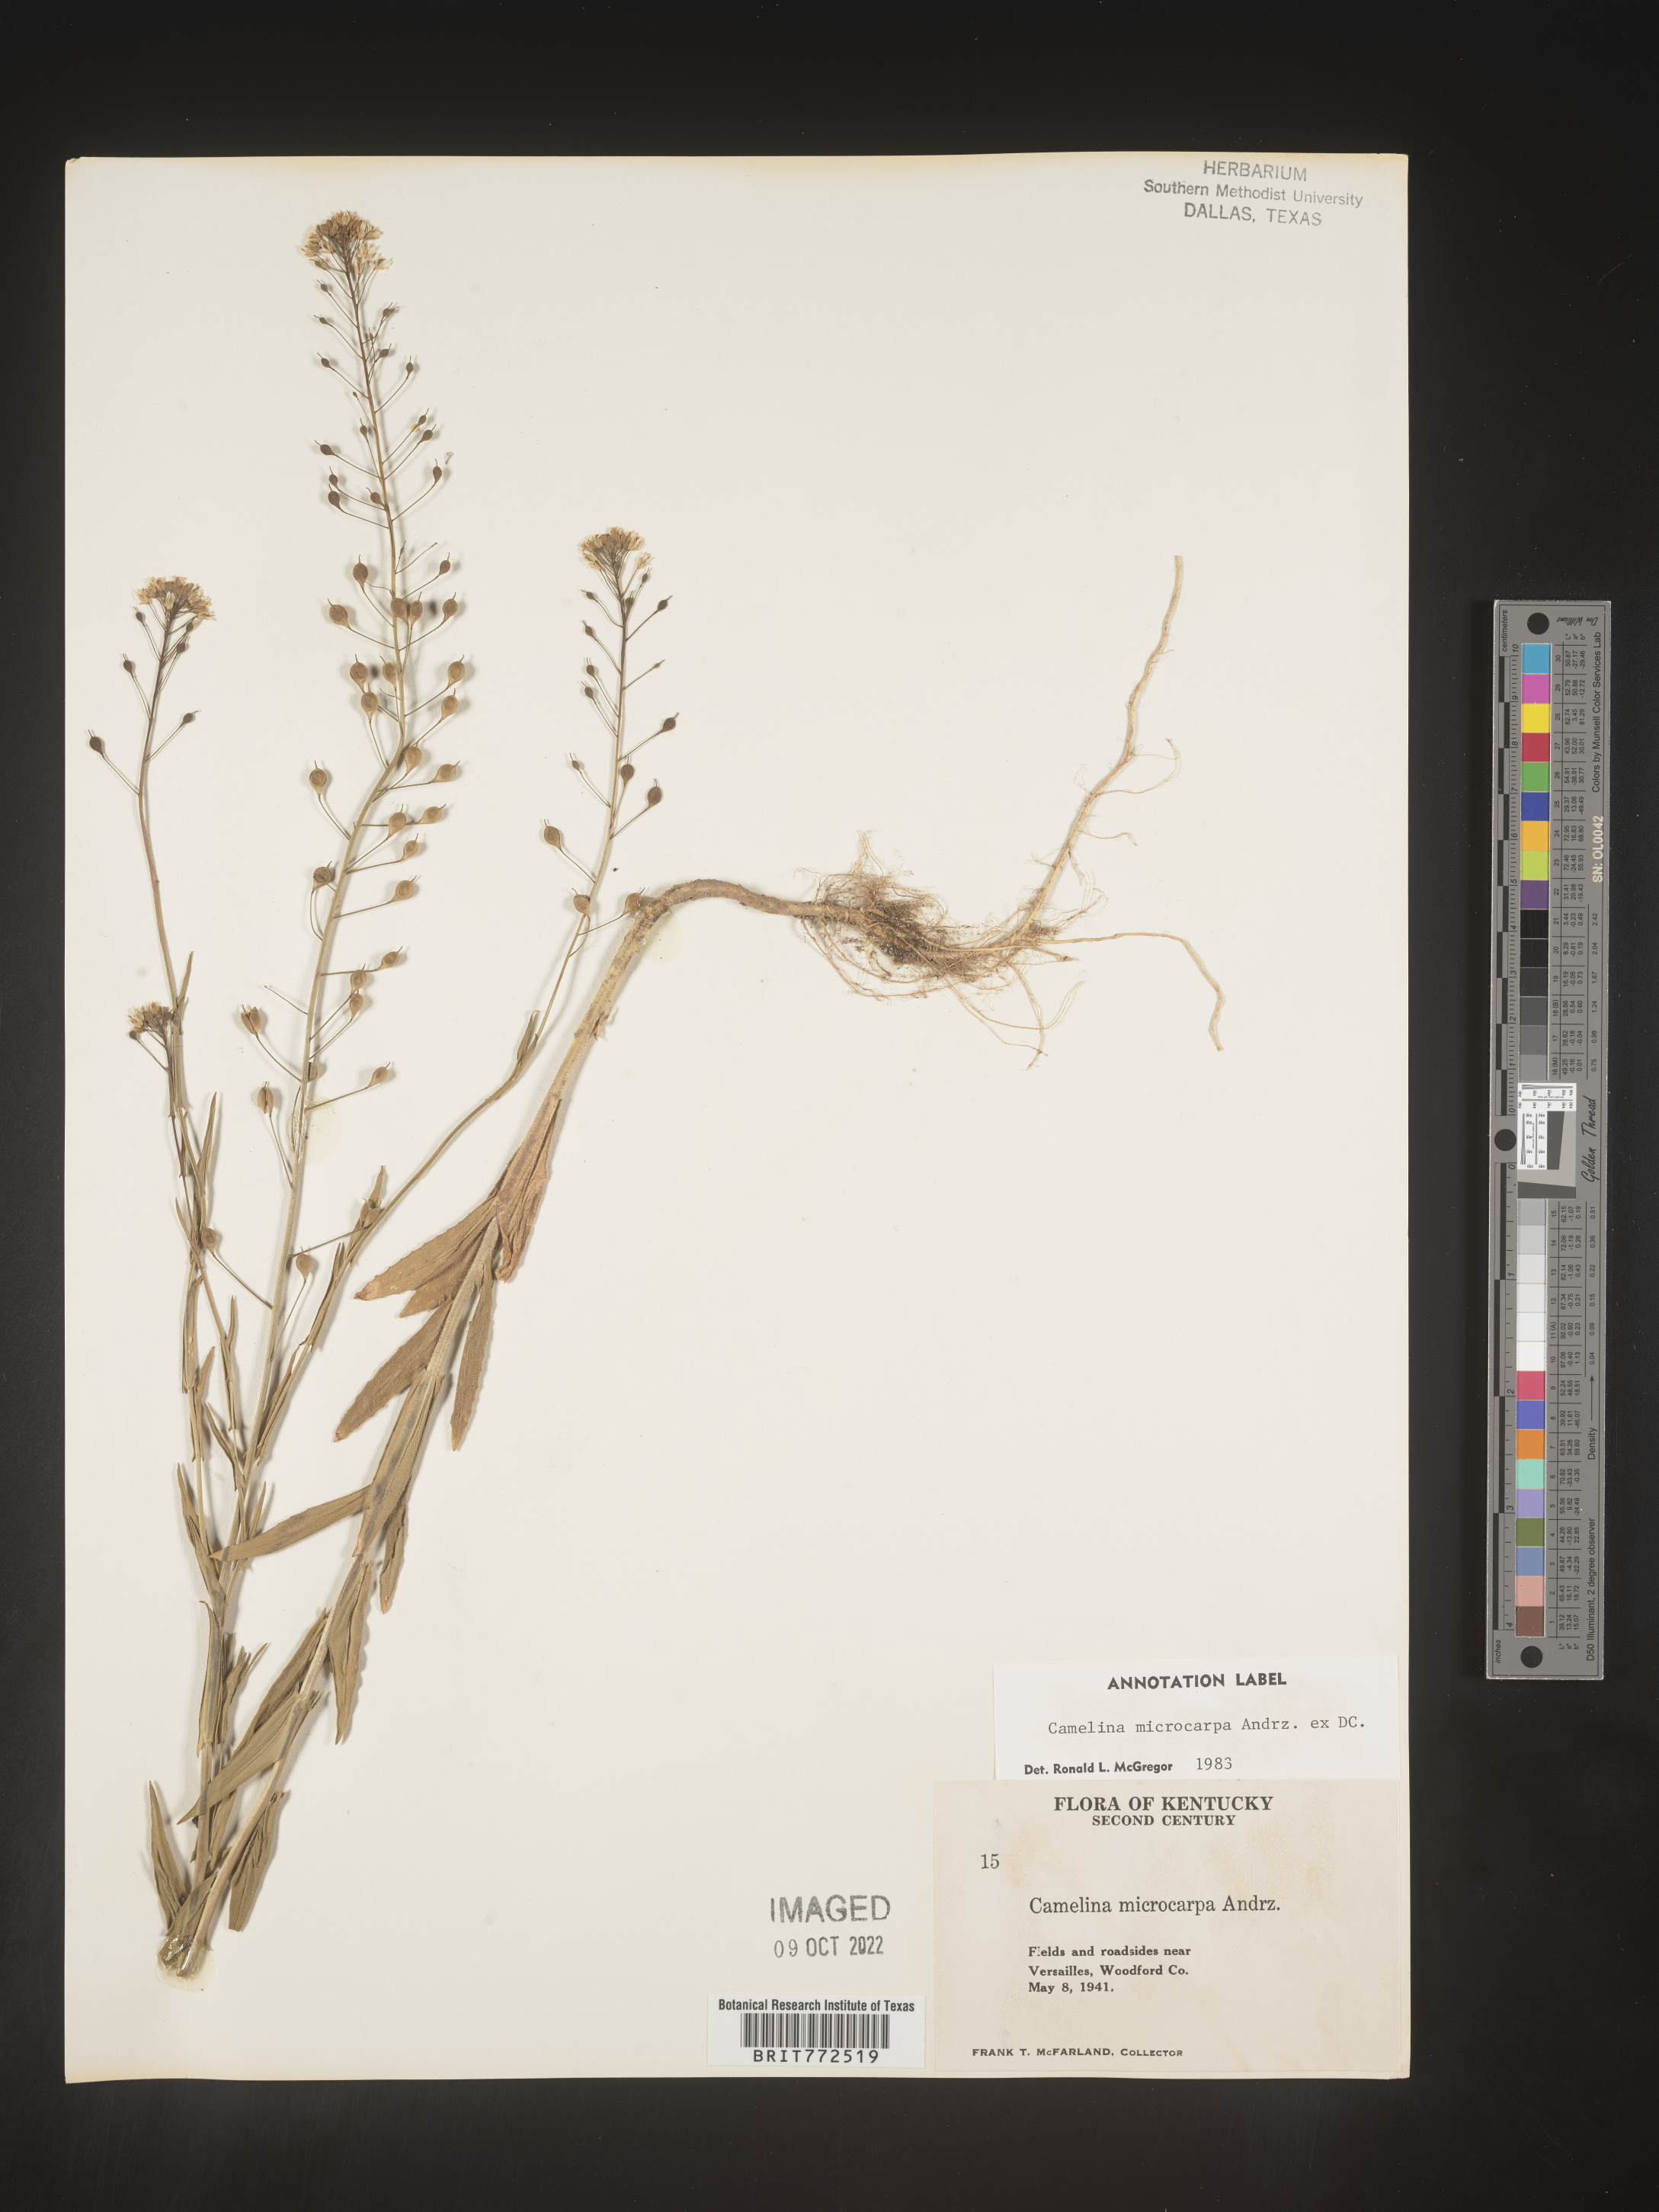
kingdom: Plantae
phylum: Tracheophyta
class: Magnoliopsida
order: Brassicales
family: Brassicaceae
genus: Camelina
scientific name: Camelina microcarpa
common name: Lesser gold-of-pleasure
